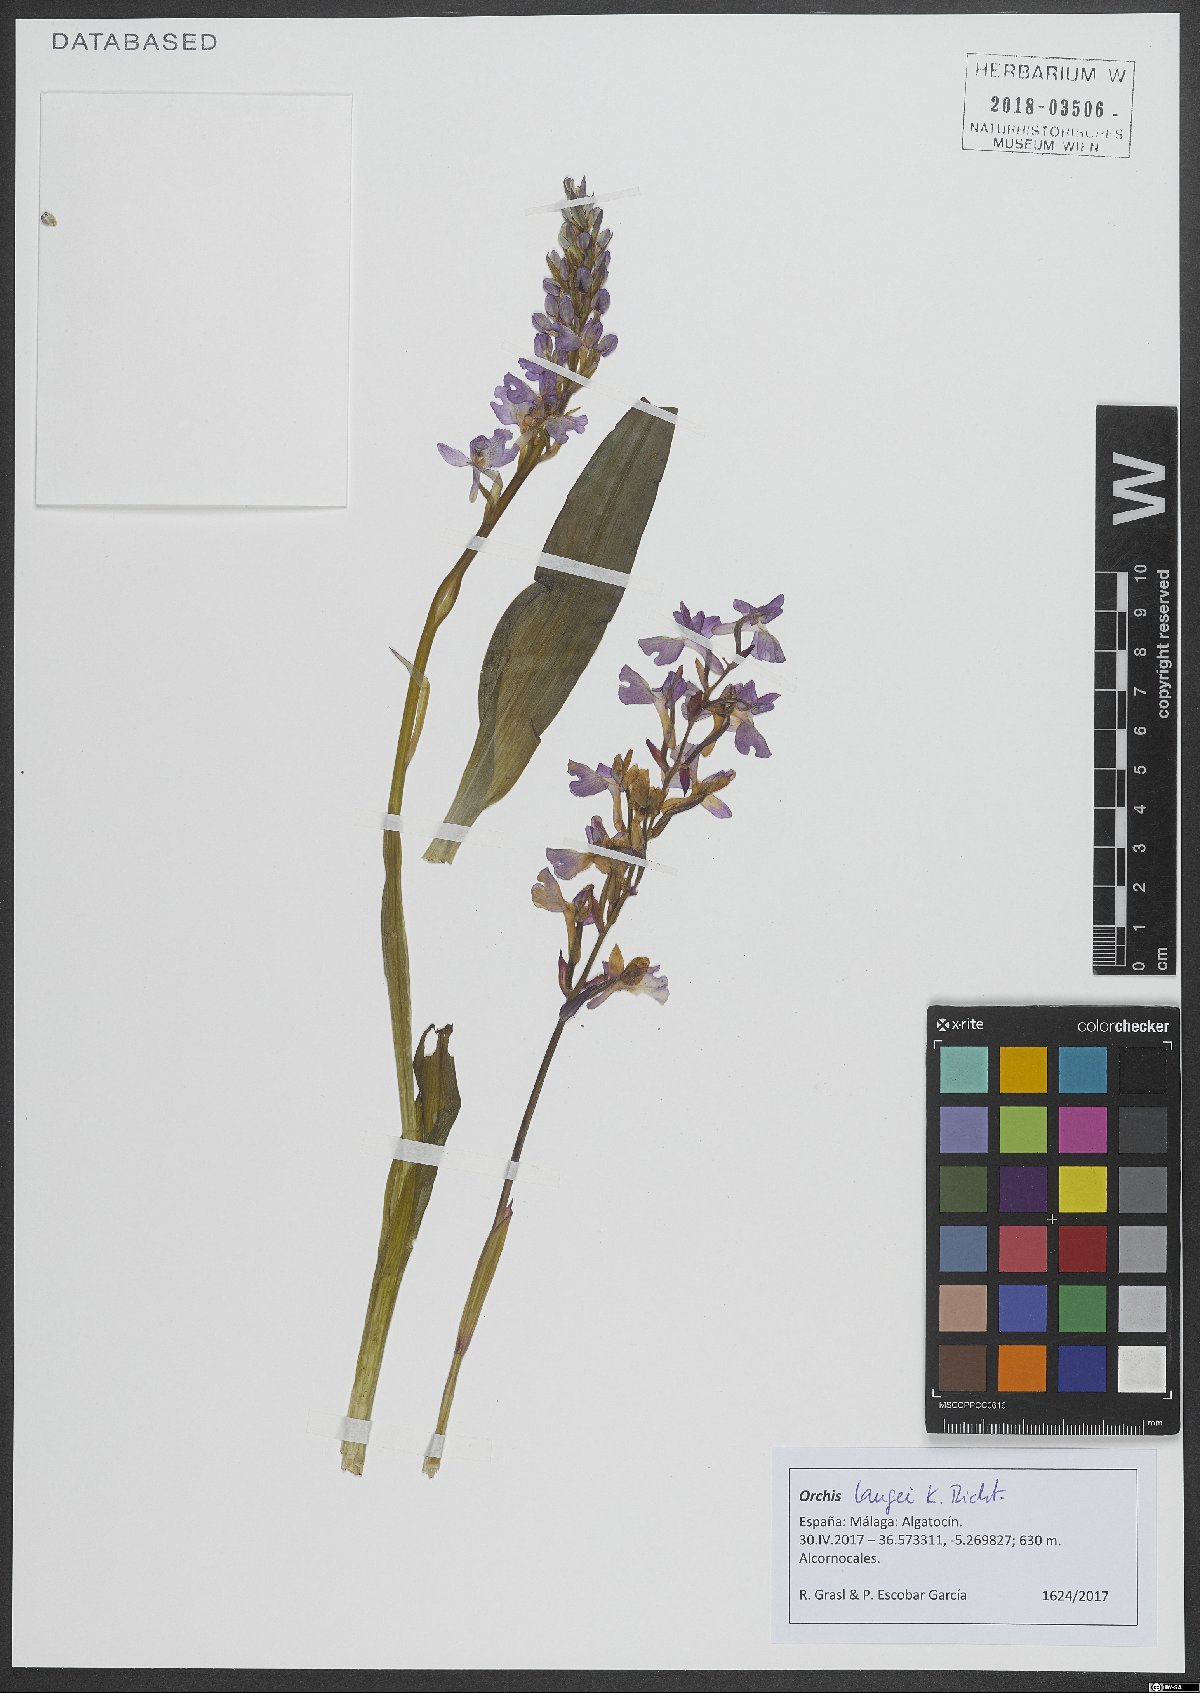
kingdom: Plantae
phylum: Tracheophyta
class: Liliopsida
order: Asparagales
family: Orchidaceae
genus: Orchis
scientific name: Orchis mascula
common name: Early-purple orchid
